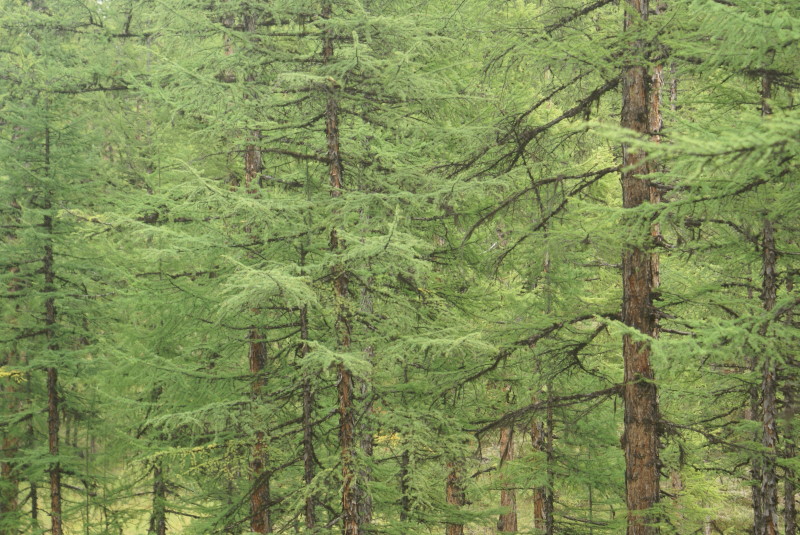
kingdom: Plantae
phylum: Tracheophyta
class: Pinopsida
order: Pinales
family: Pinaceae
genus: Larix
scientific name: Larix gmelinii
